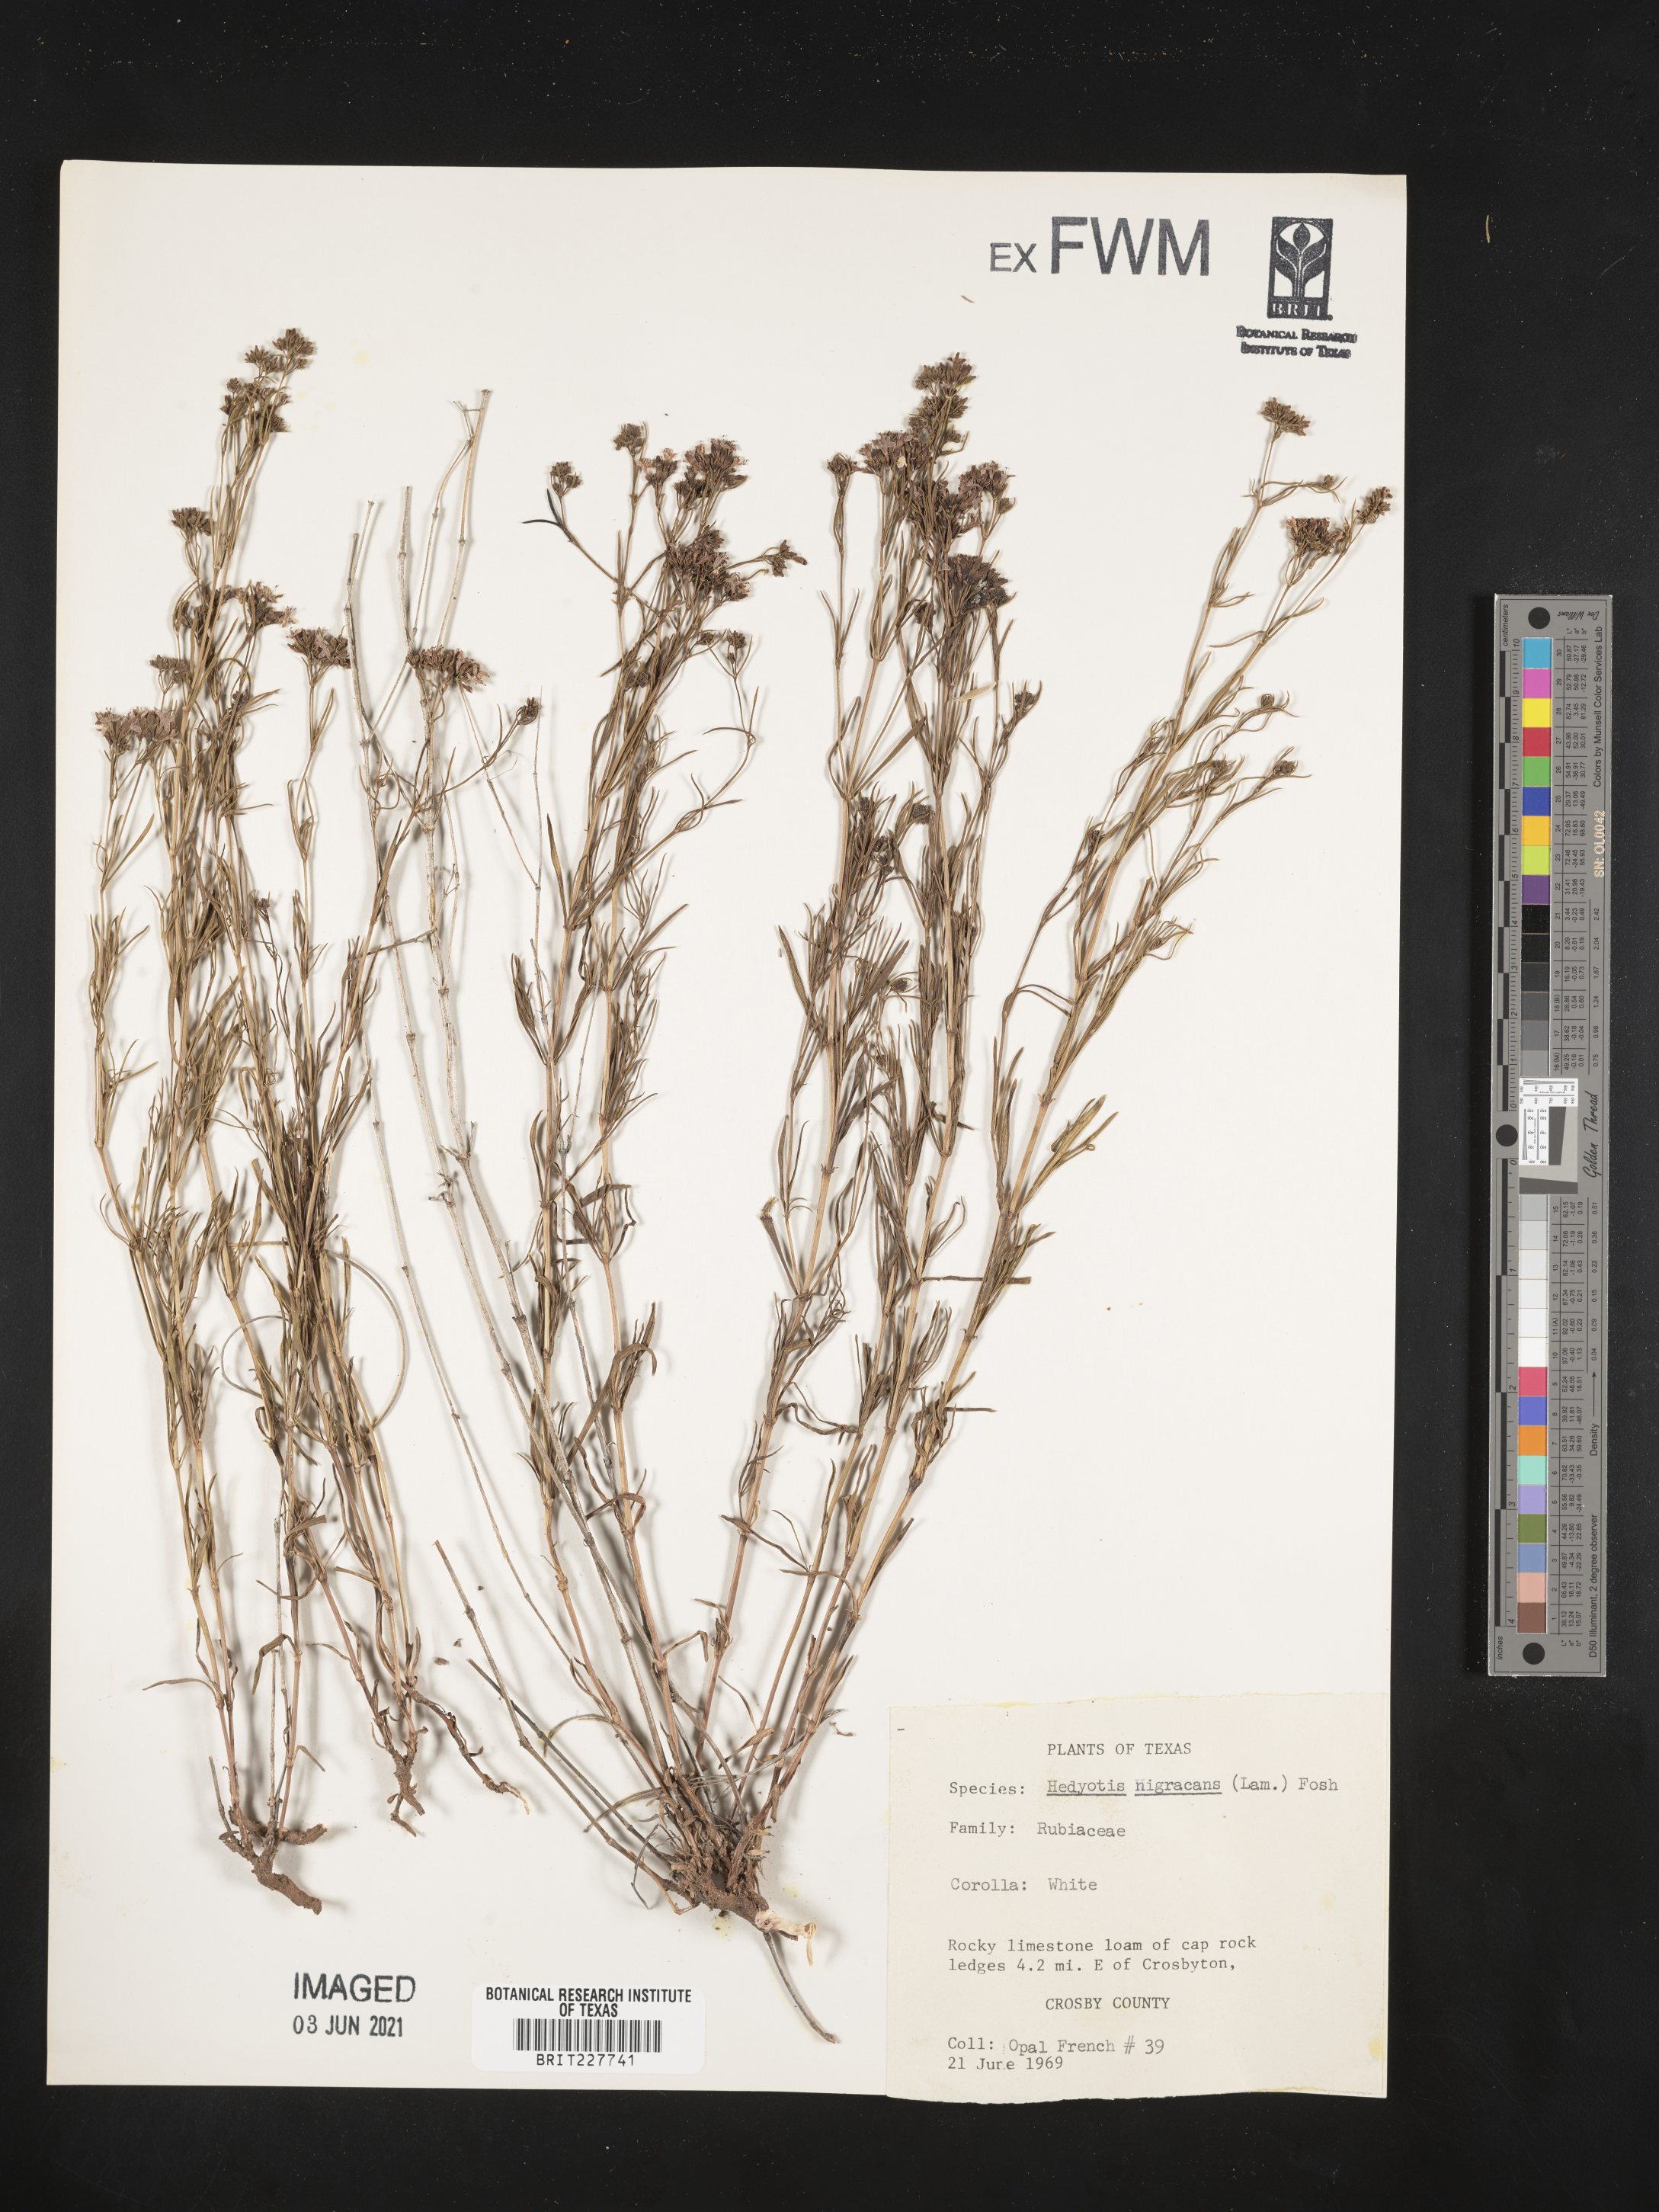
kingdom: Plantae
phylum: Tracheophyta
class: Magnoliopsida
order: Gentianales
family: Rubiaceae
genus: Stenaria
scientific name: Stenaria nigricans
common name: Diamondflowers
